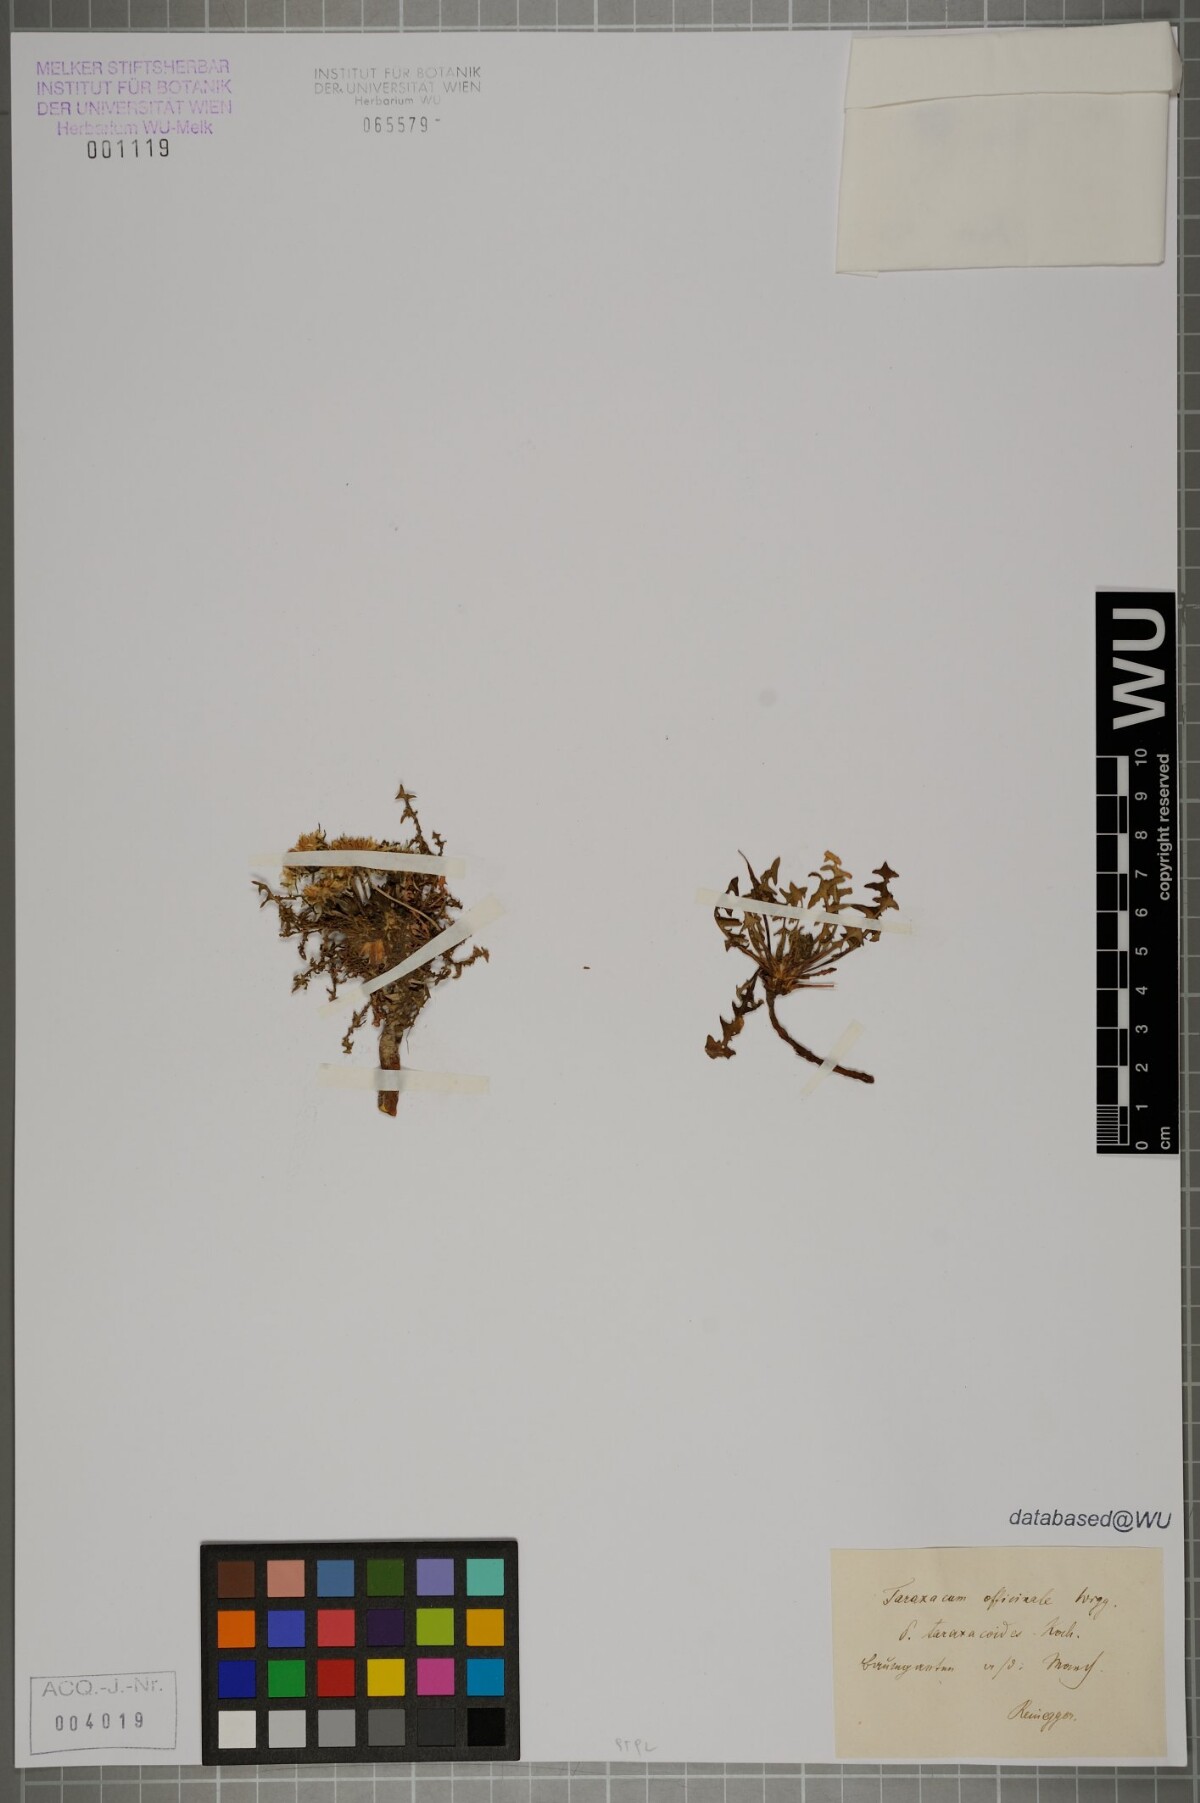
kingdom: Plantae
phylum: Tracheophyta
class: Magnoliopsida
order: Asterales
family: Asteraceae
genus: Taraxacum
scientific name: Taraxacum officinale
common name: Common dandelion
